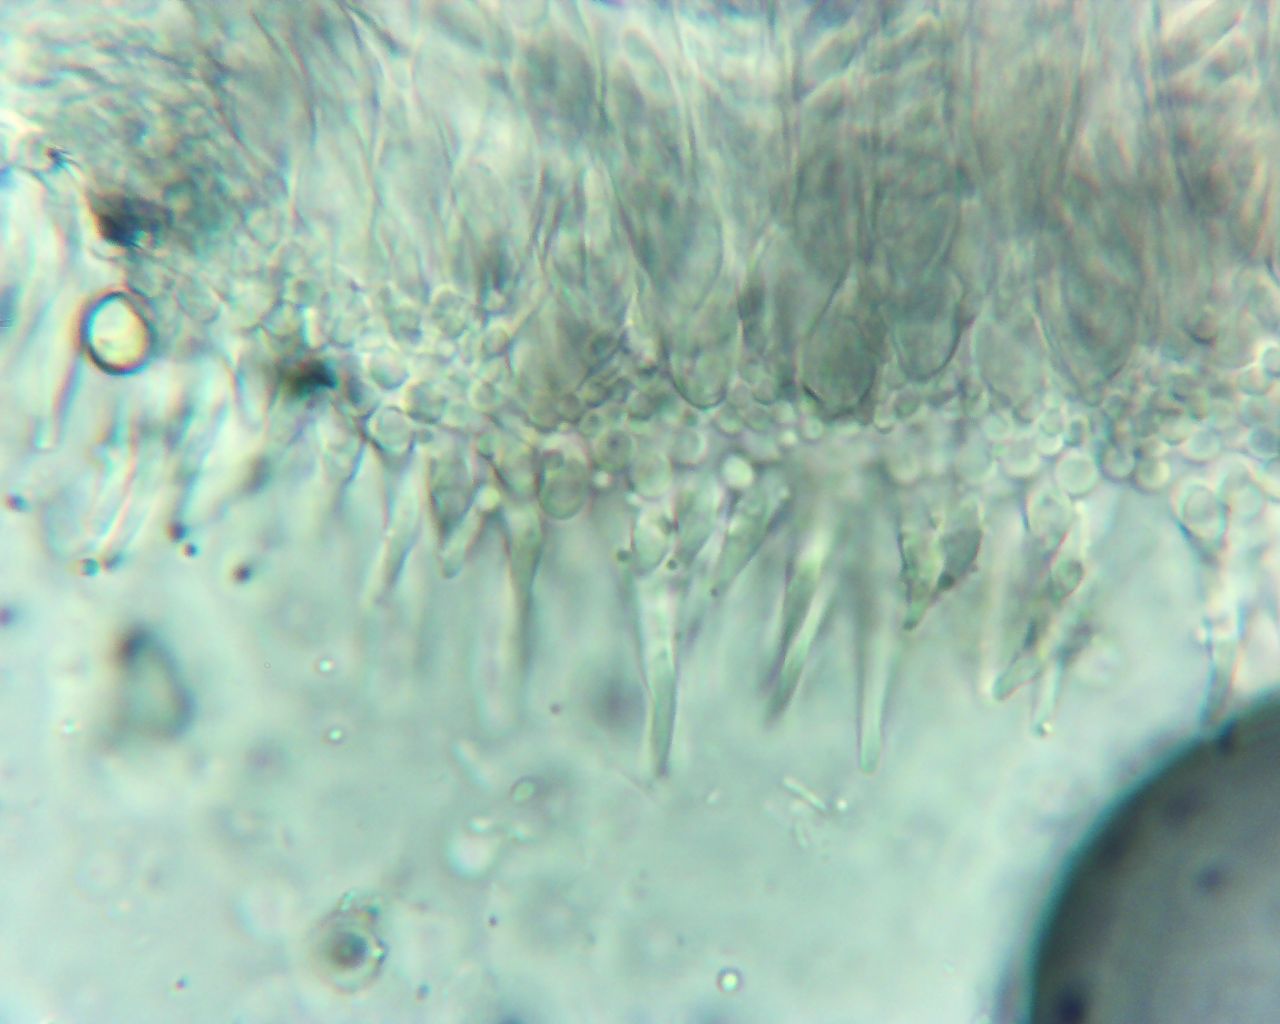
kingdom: Fungi
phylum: Ascomycota
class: Leotiomycetes
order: Helotiales
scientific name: Helotiales
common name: stilkskiveordenen
